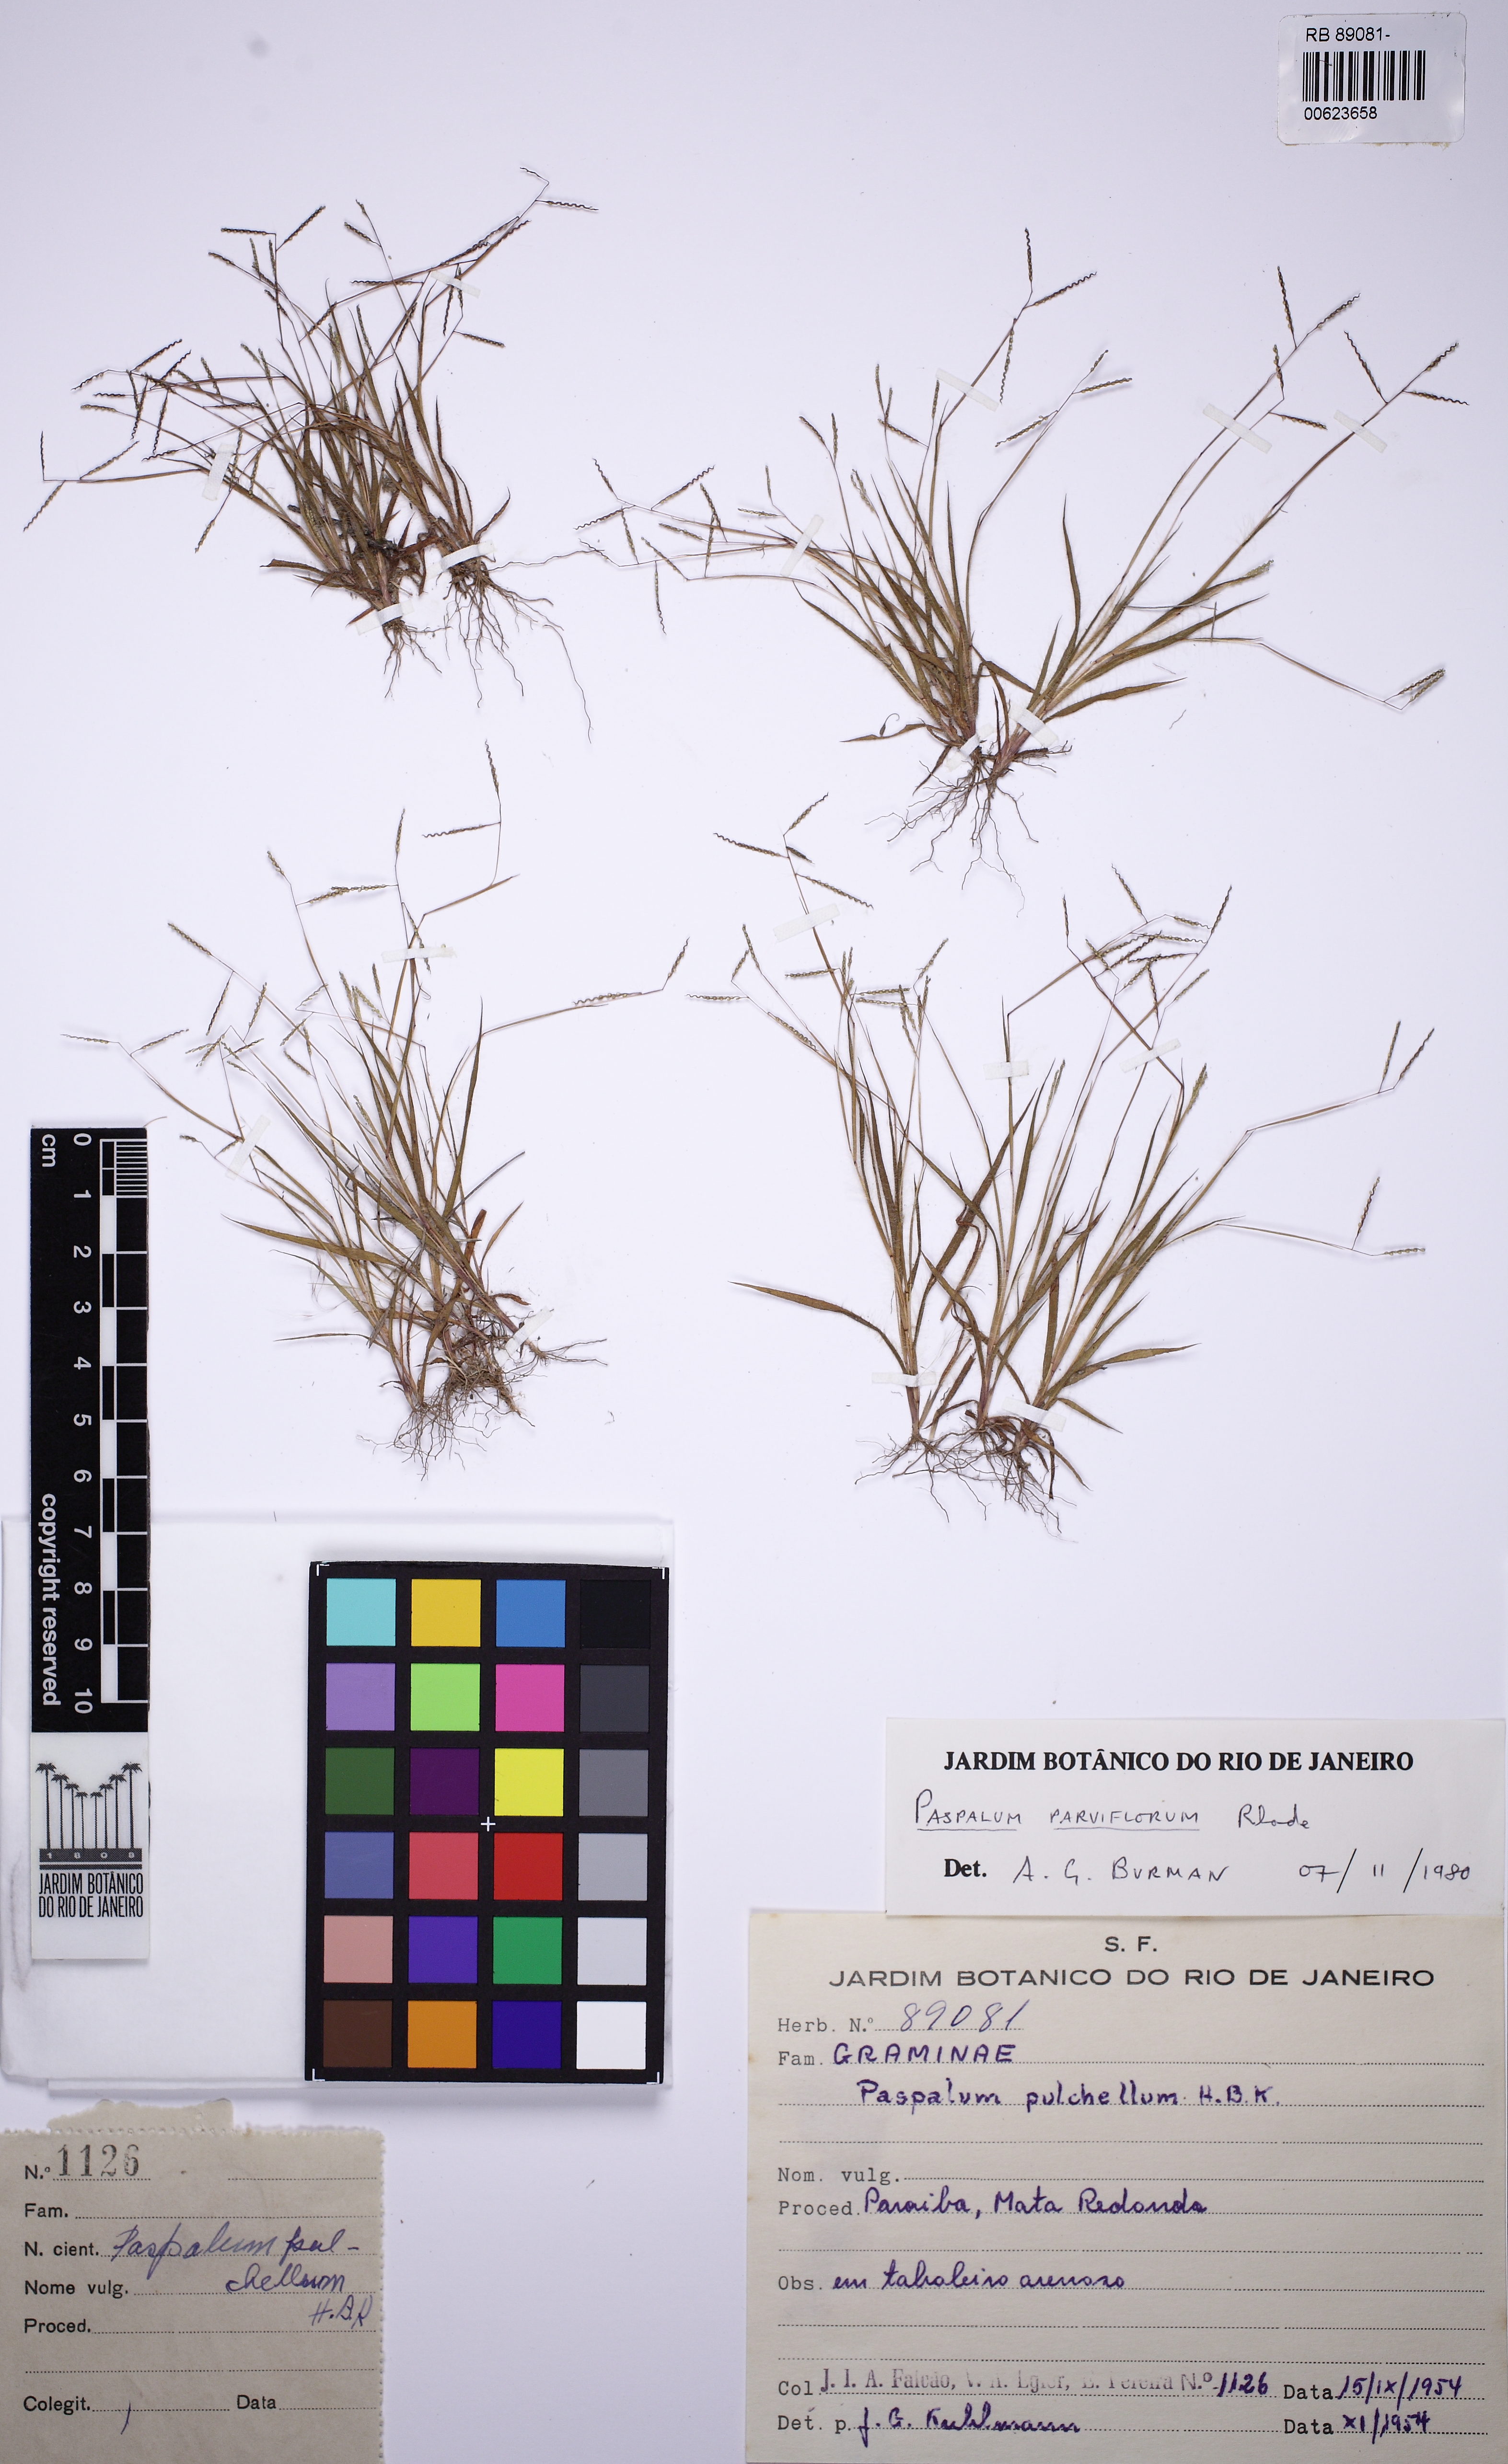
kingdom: Plantae
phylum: Tracheophyta
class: Liliopsida
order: Poales
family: Poaceae
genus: Paspalum
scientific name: Paspalum parviflorum
